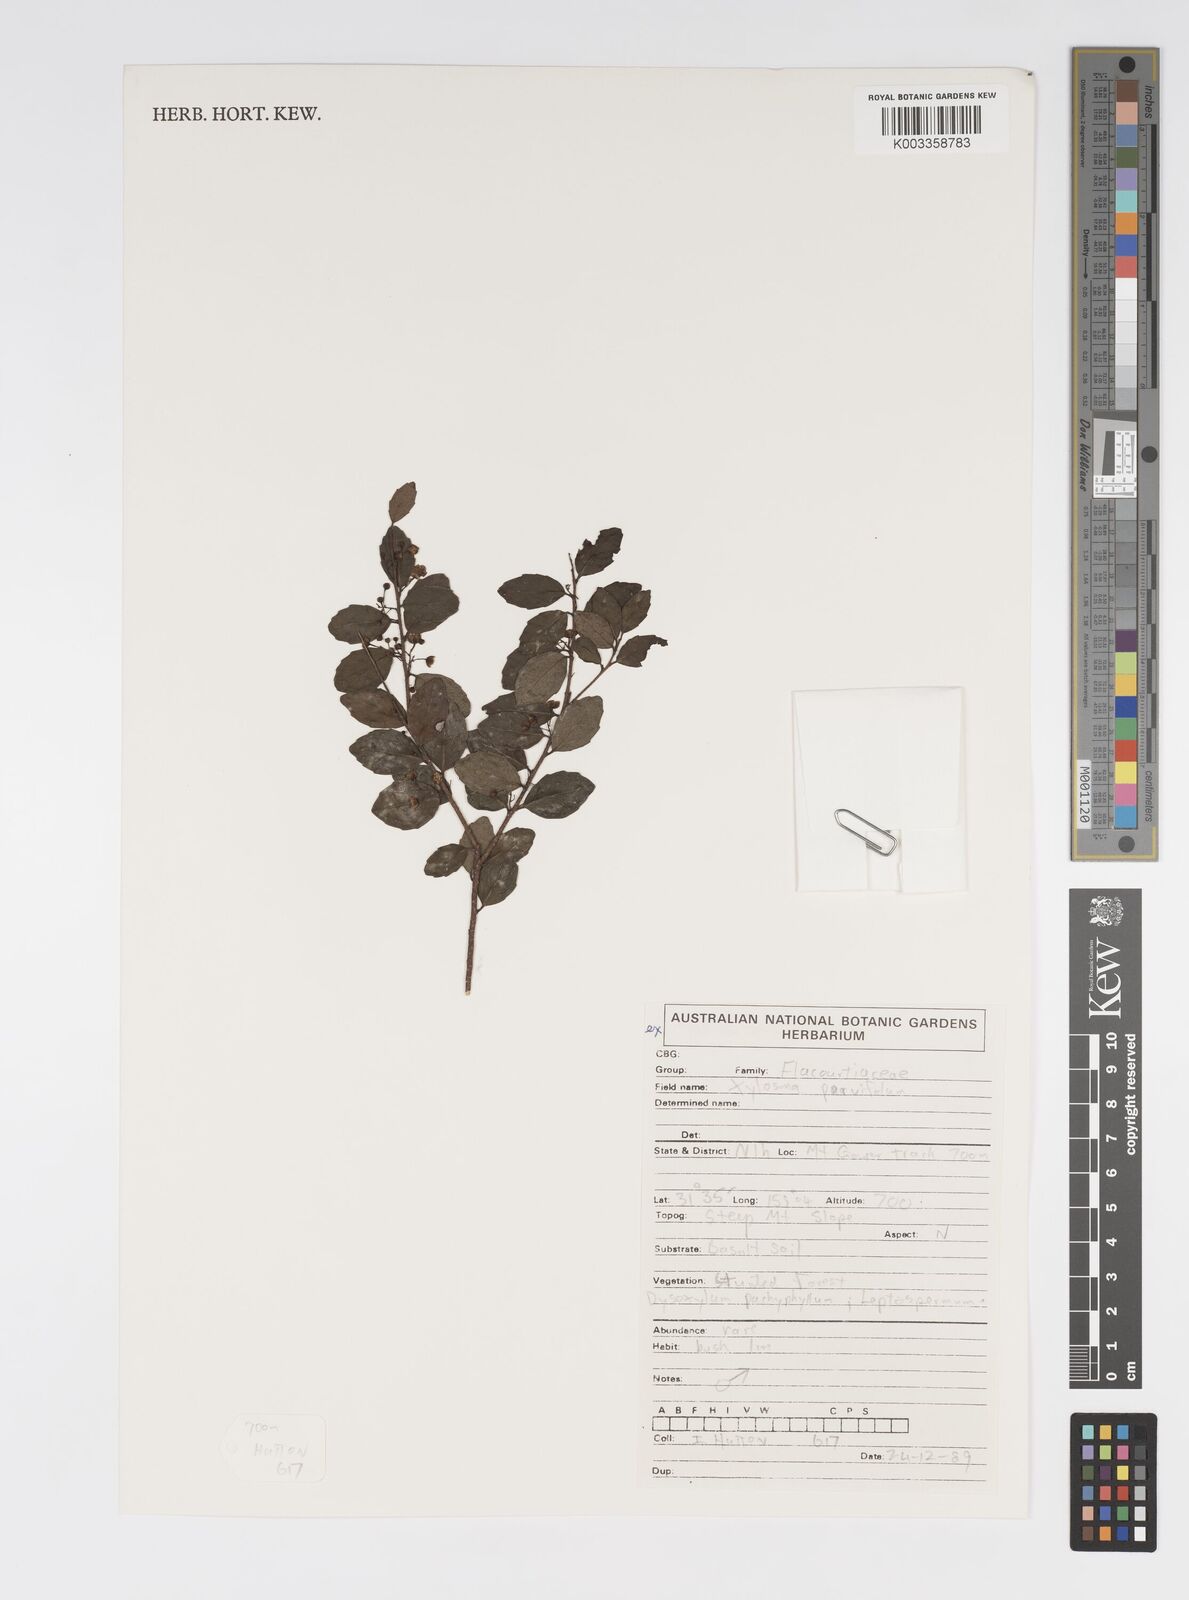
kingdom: Plantae
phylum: Tracheophyta
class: Magnoliopsida
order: Malpighiales
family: Salicaceae
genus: Xylosma
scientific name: Xylosma parvifolia
